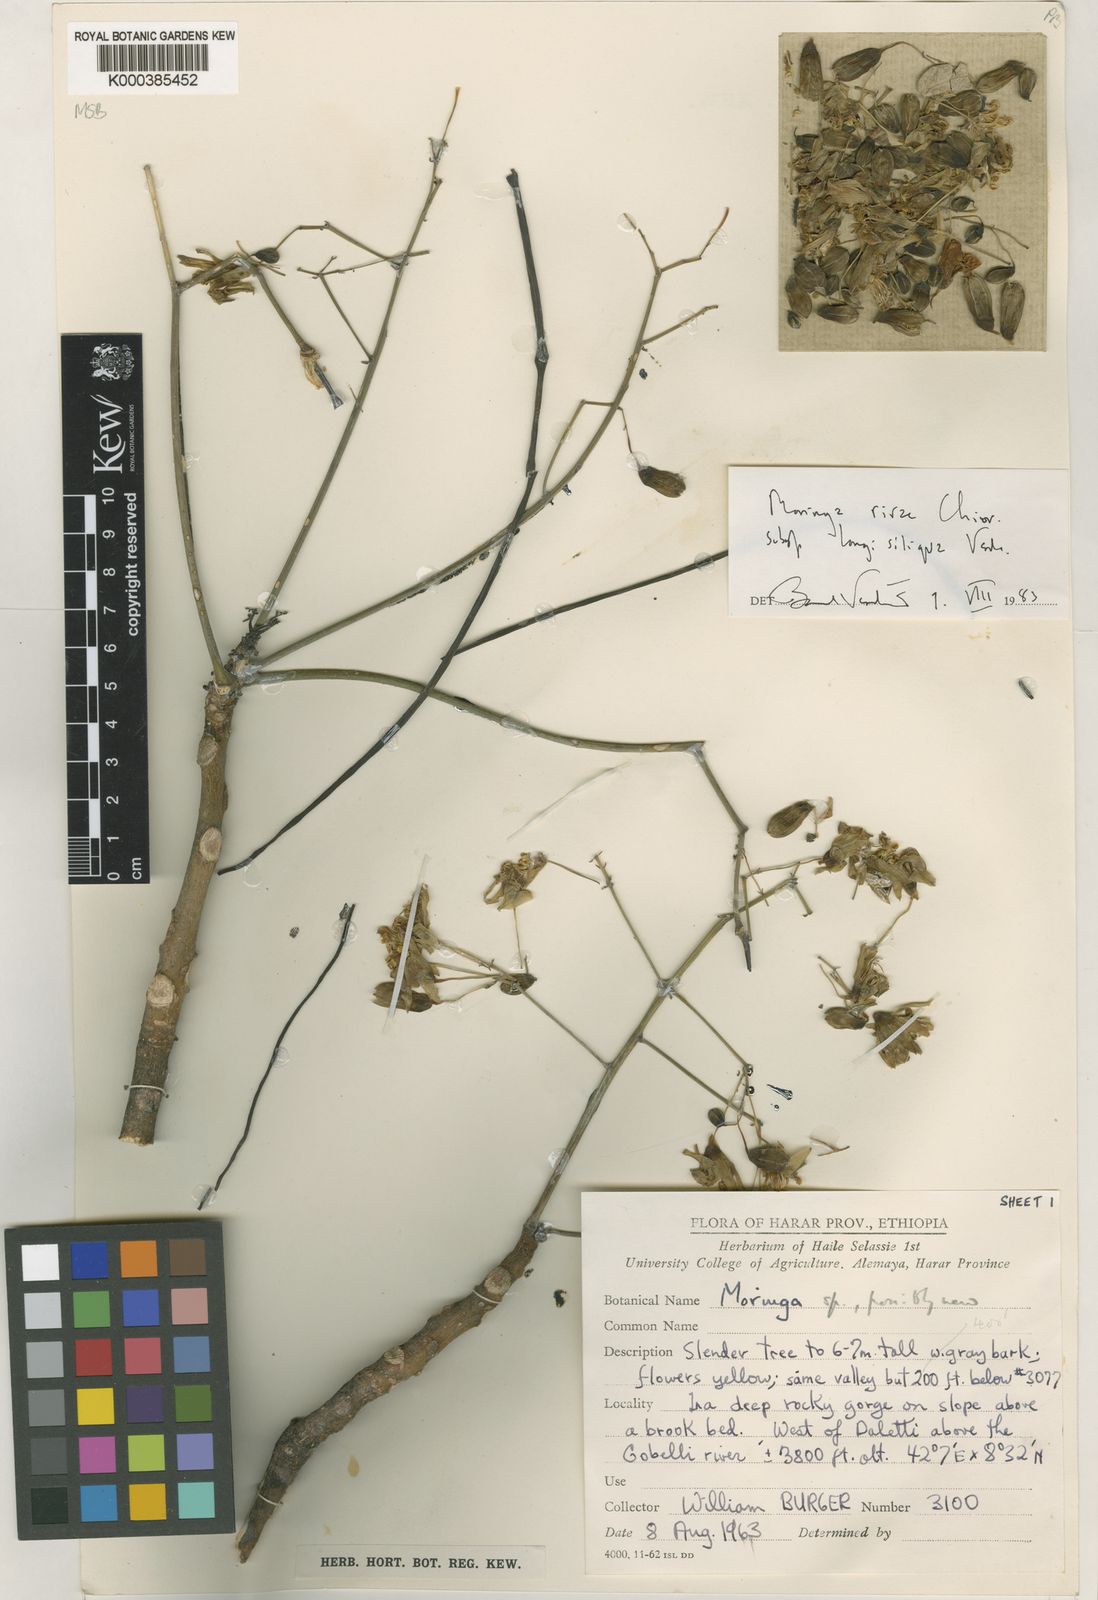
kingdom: Plantae
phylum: Tracheophyta
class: Magnoliopsida
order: Brassicales
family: Moringaceae
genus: Moringa
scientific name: Moringa rivae
